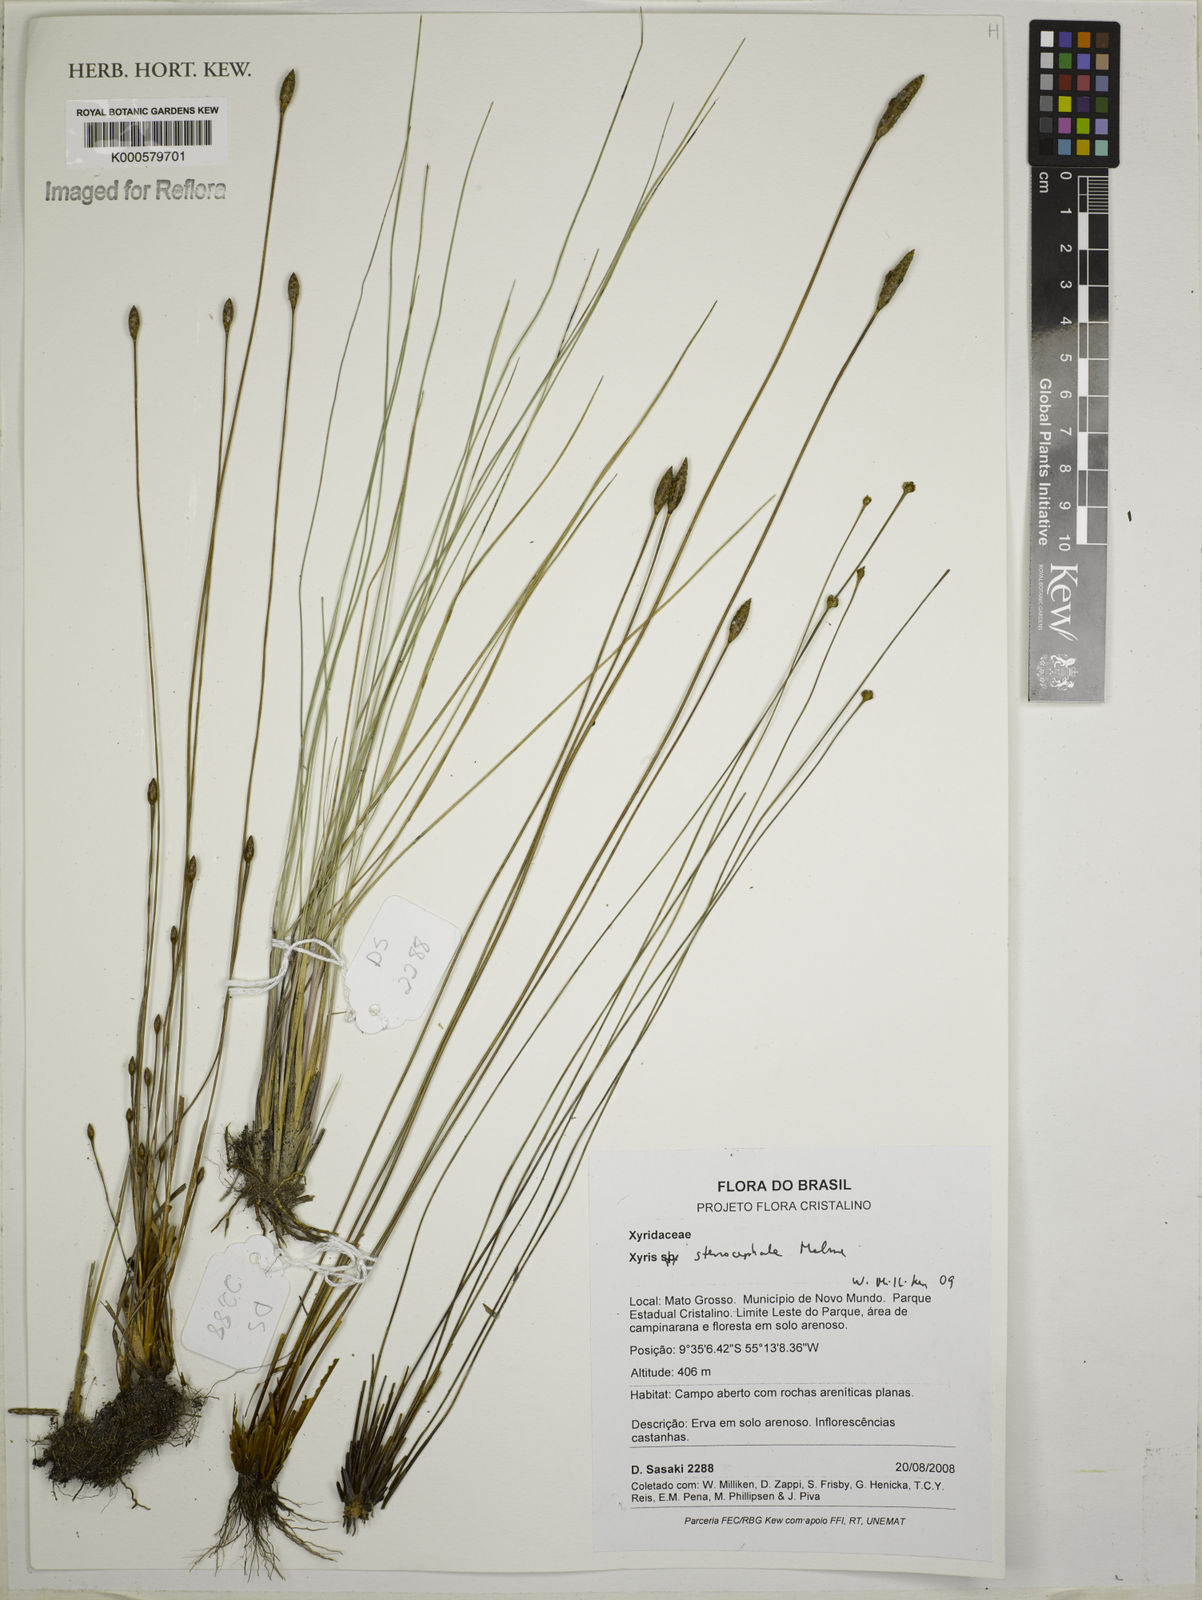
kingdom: Plantae
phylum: Tracheophyta
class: Liliopsida
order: Poales
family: Xyridaceae
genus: Xyris
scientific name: Xyris stenocephala
